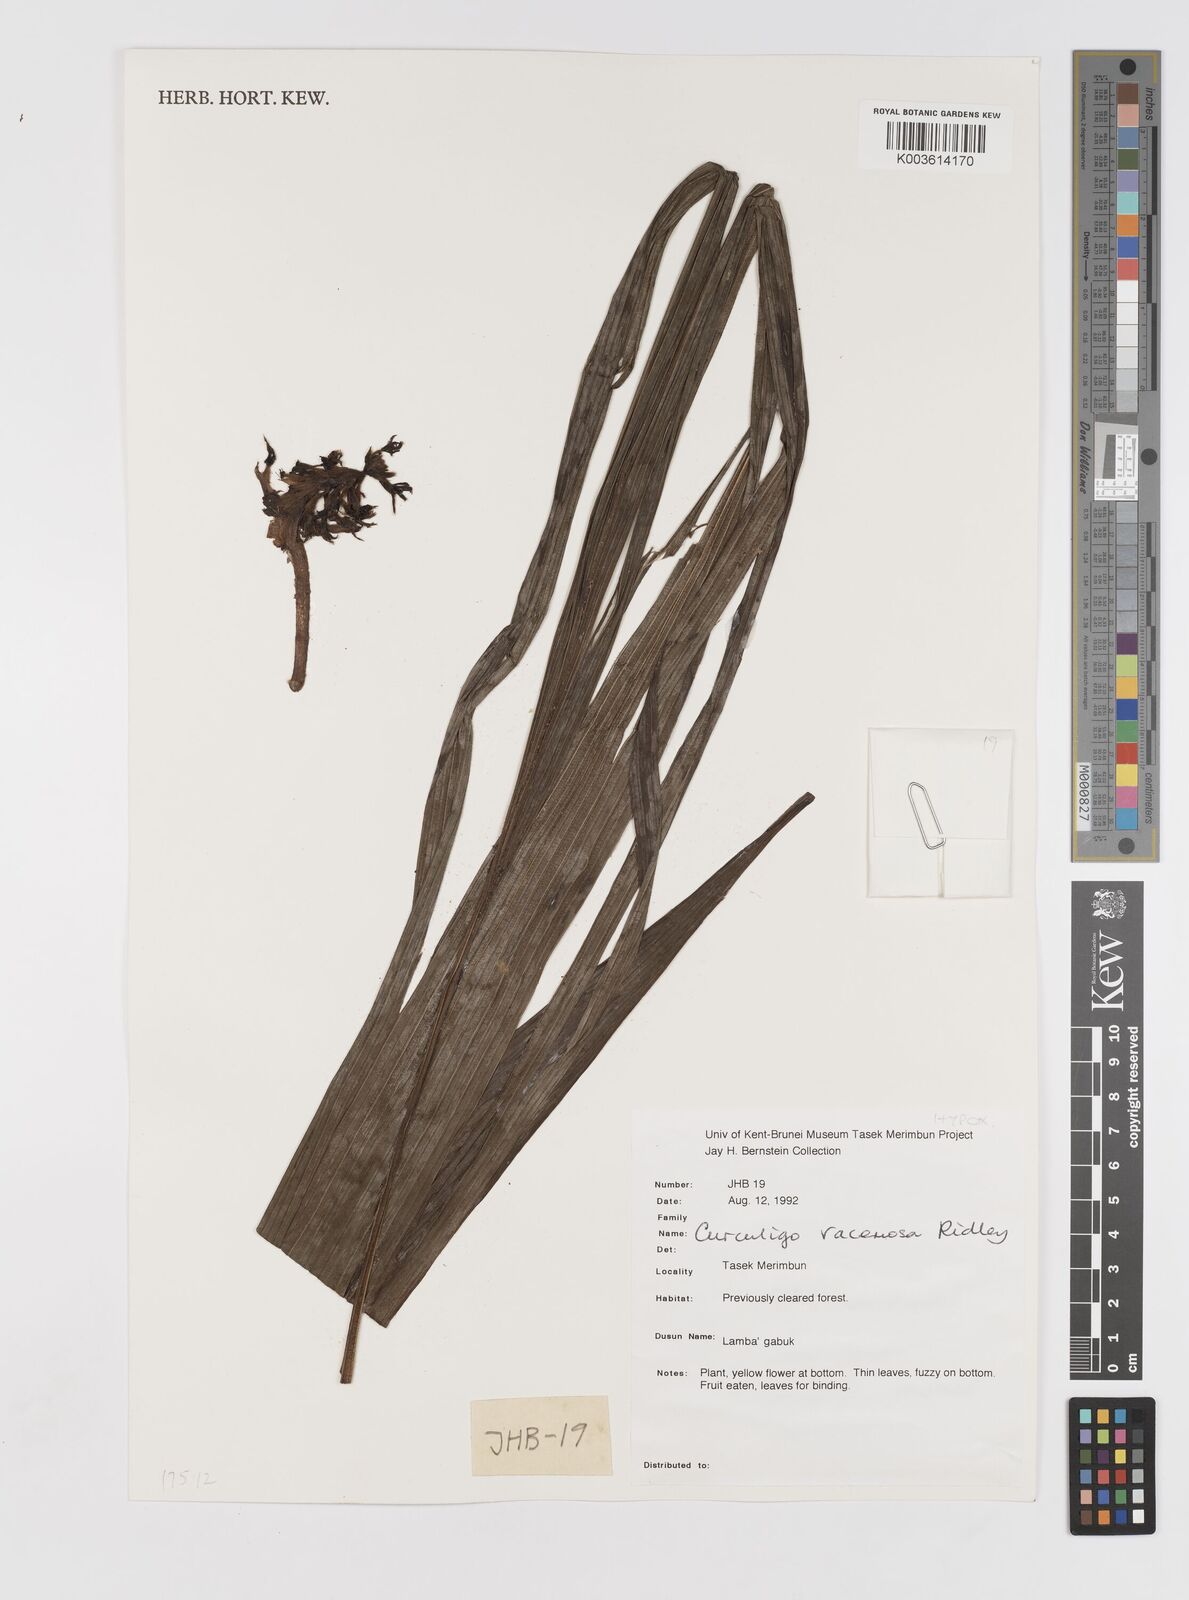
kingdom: Plantae
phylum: Tracheophyta
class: Liliopsida
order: Asparagales
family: Hypoxidaceae
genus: Curculigo
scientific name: Curculigo racemosa
